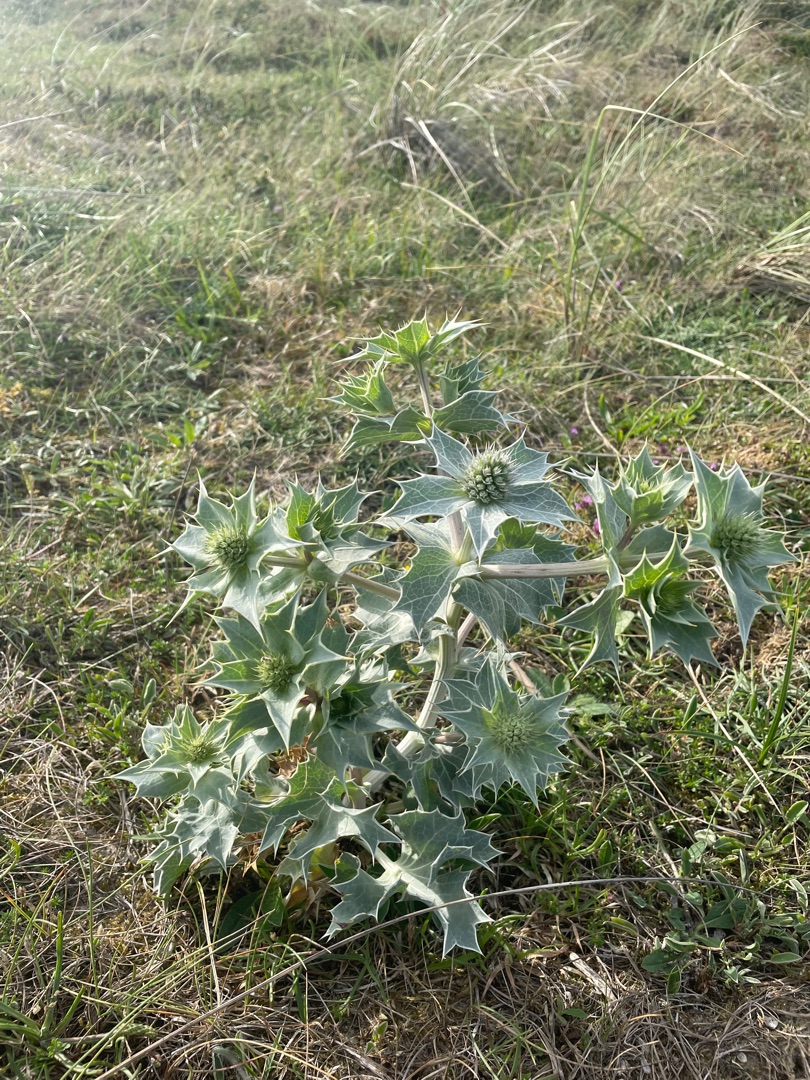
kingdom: Plantae
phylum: Tracheophyta
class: Magnoliopsida
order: Apiales
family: Apiaceae
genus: Eryngium
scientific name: Eryngium maritimum
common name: Strand-mandstro
